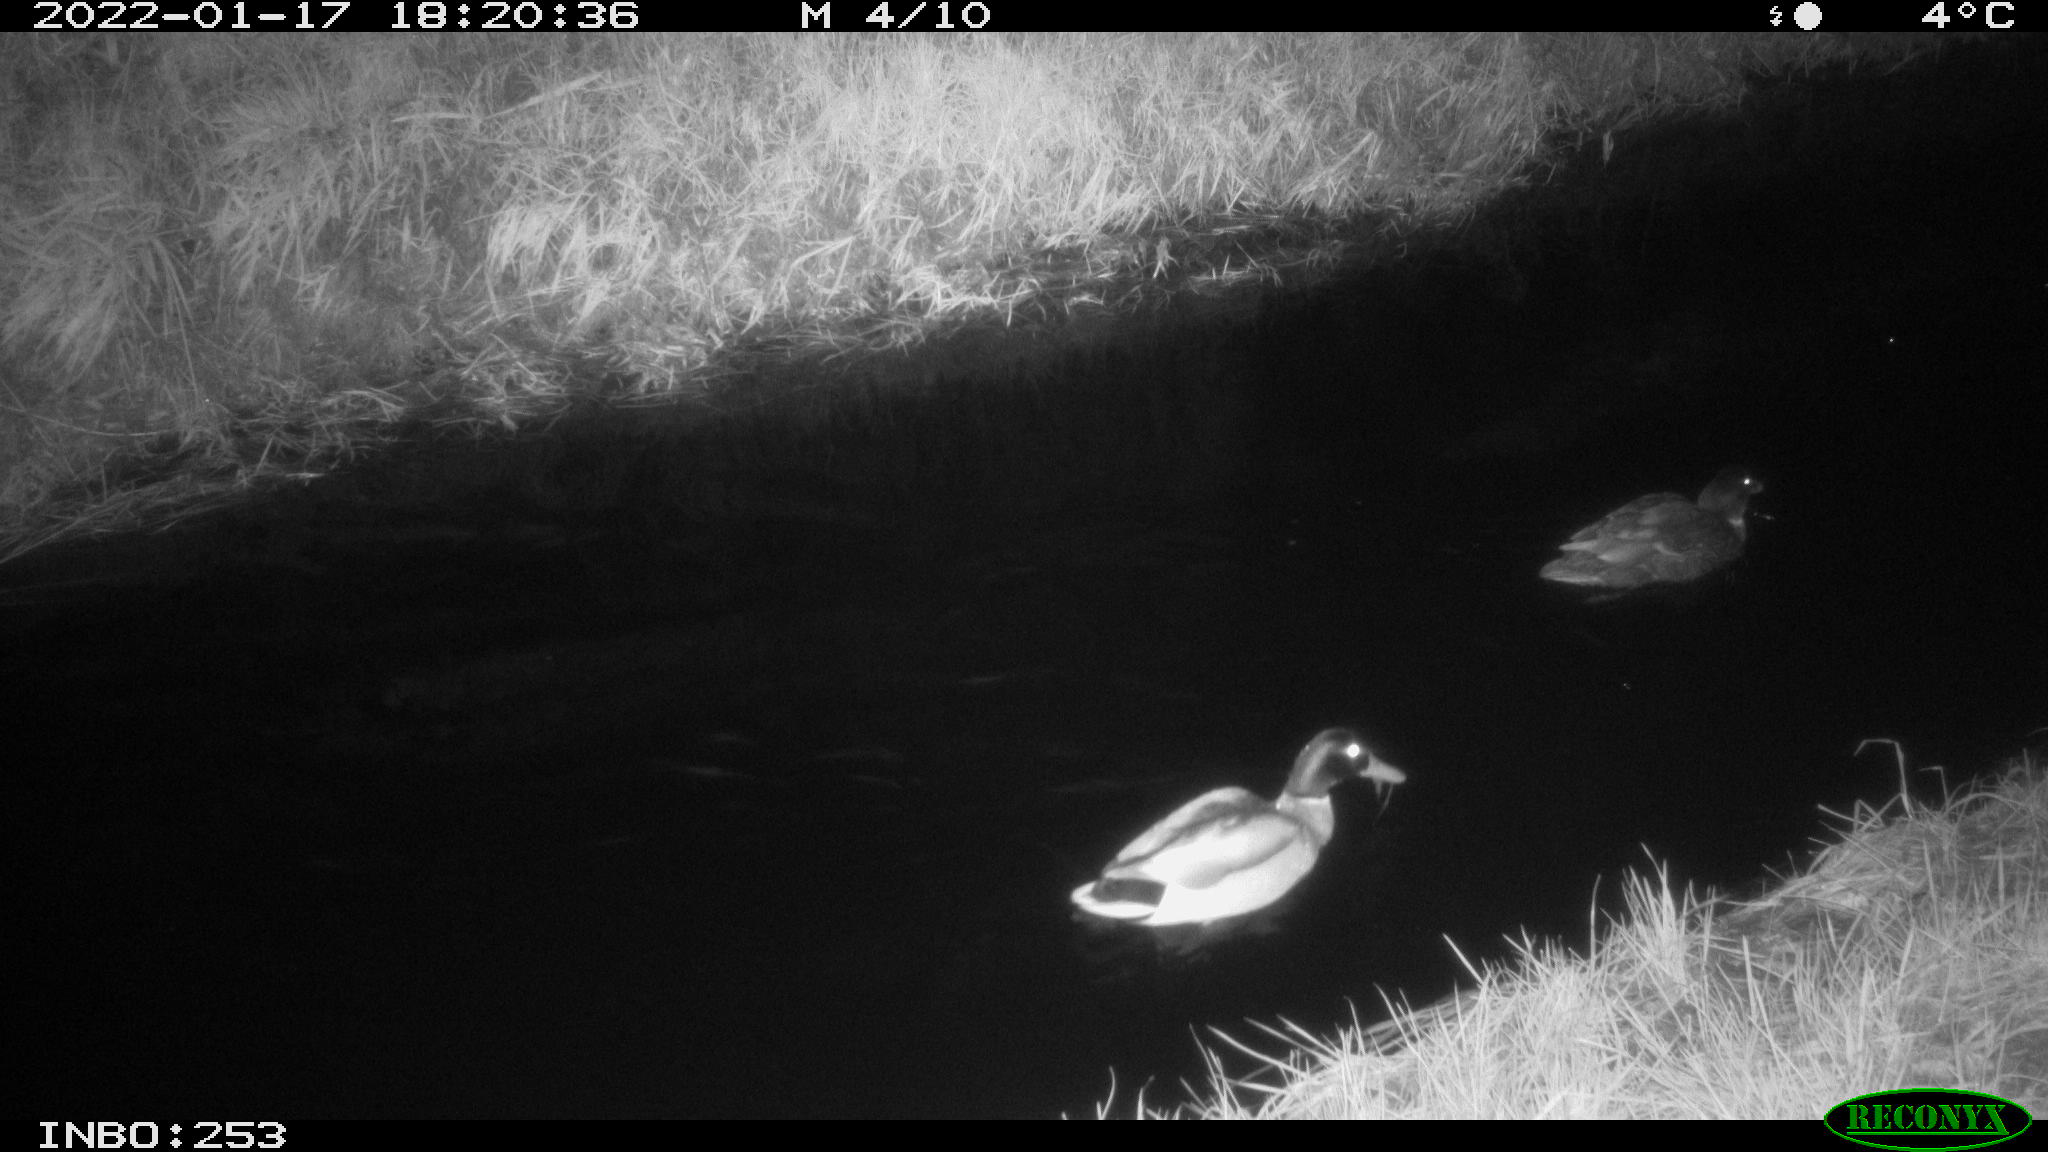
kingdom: Animalia
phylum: Chordata
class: Aves
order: Anseriformes
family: Anatidae
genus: Anas
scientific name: Anas
